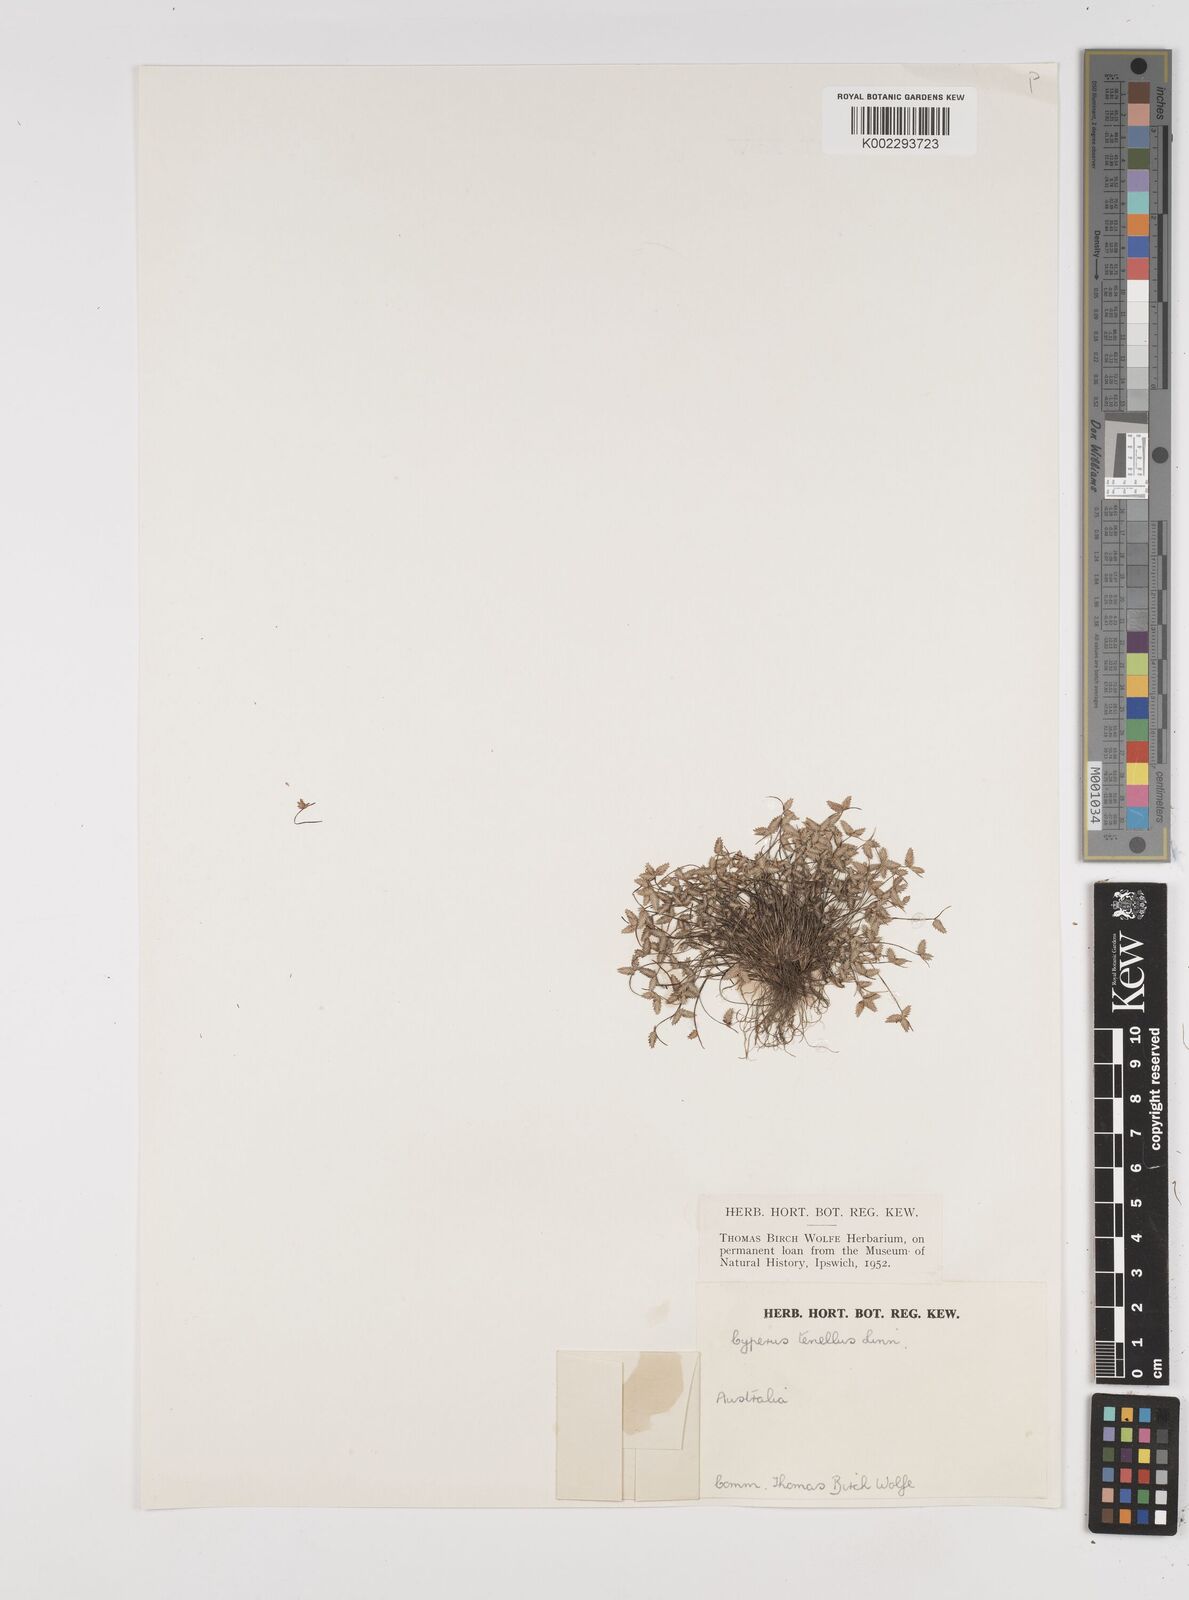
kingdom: Plantae
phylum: Tracheophyta
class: Liliopsida
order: Poales
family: Cyperaceae
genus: Isolepis
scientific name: Isolepis levynsiana
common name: Sedge
